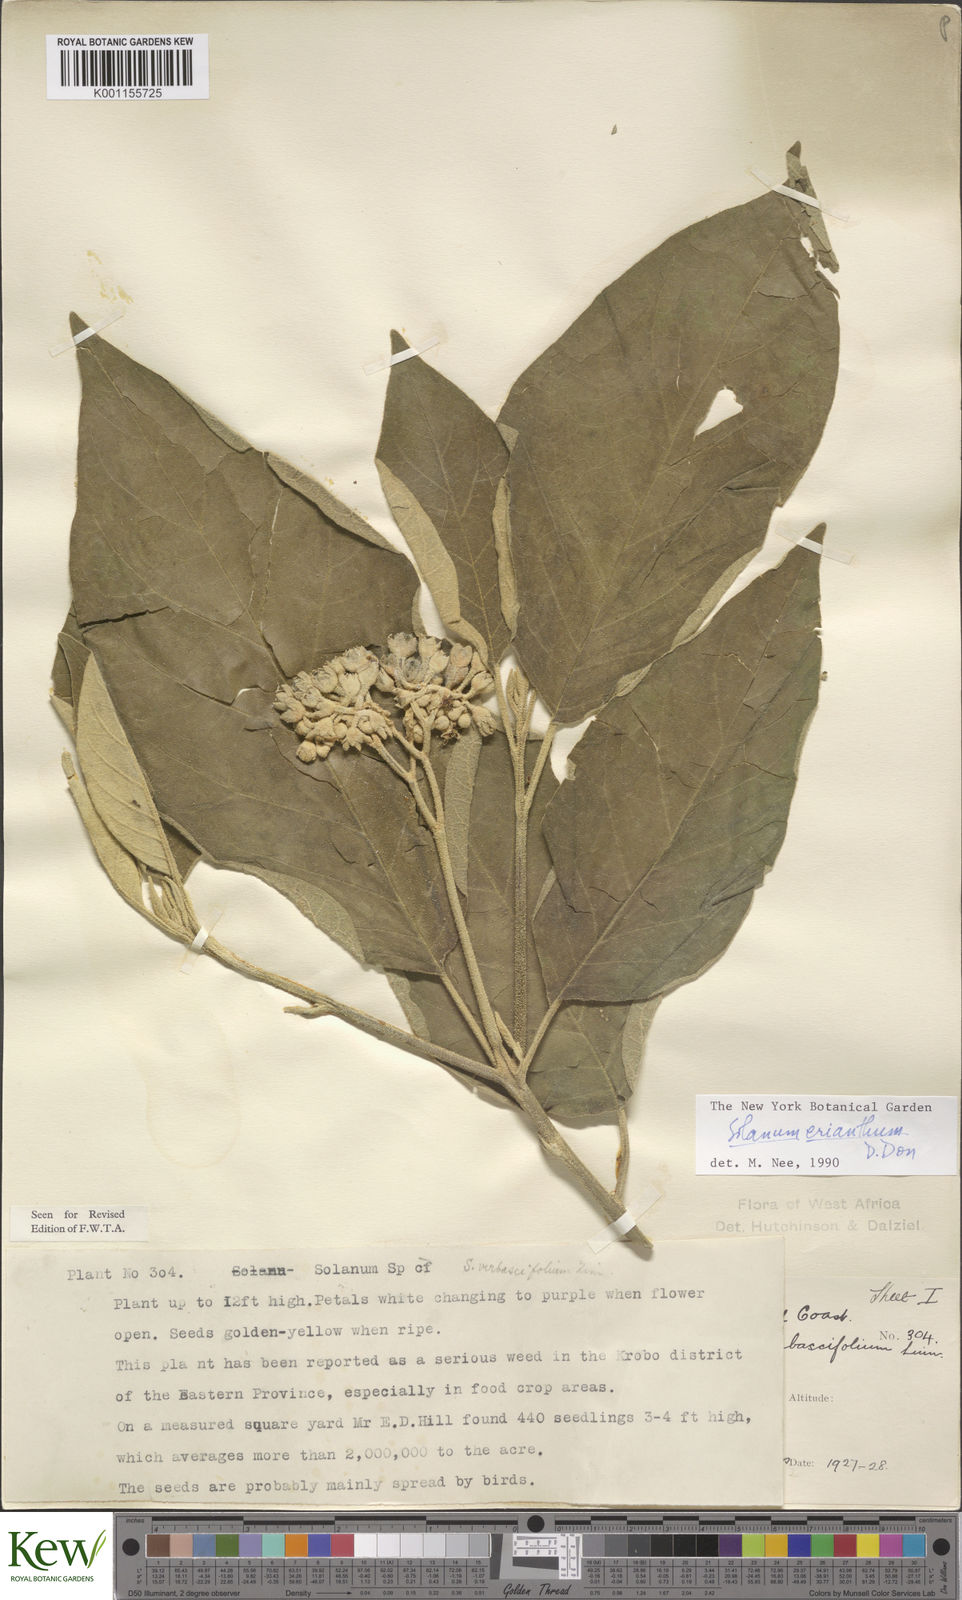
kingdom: Plantae
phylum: Tracheophyta
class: Magnoliopsida
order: Solanales
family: Solanaceae
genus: Solanum
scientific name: Solanum erianthum
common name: Tobacco-tree
